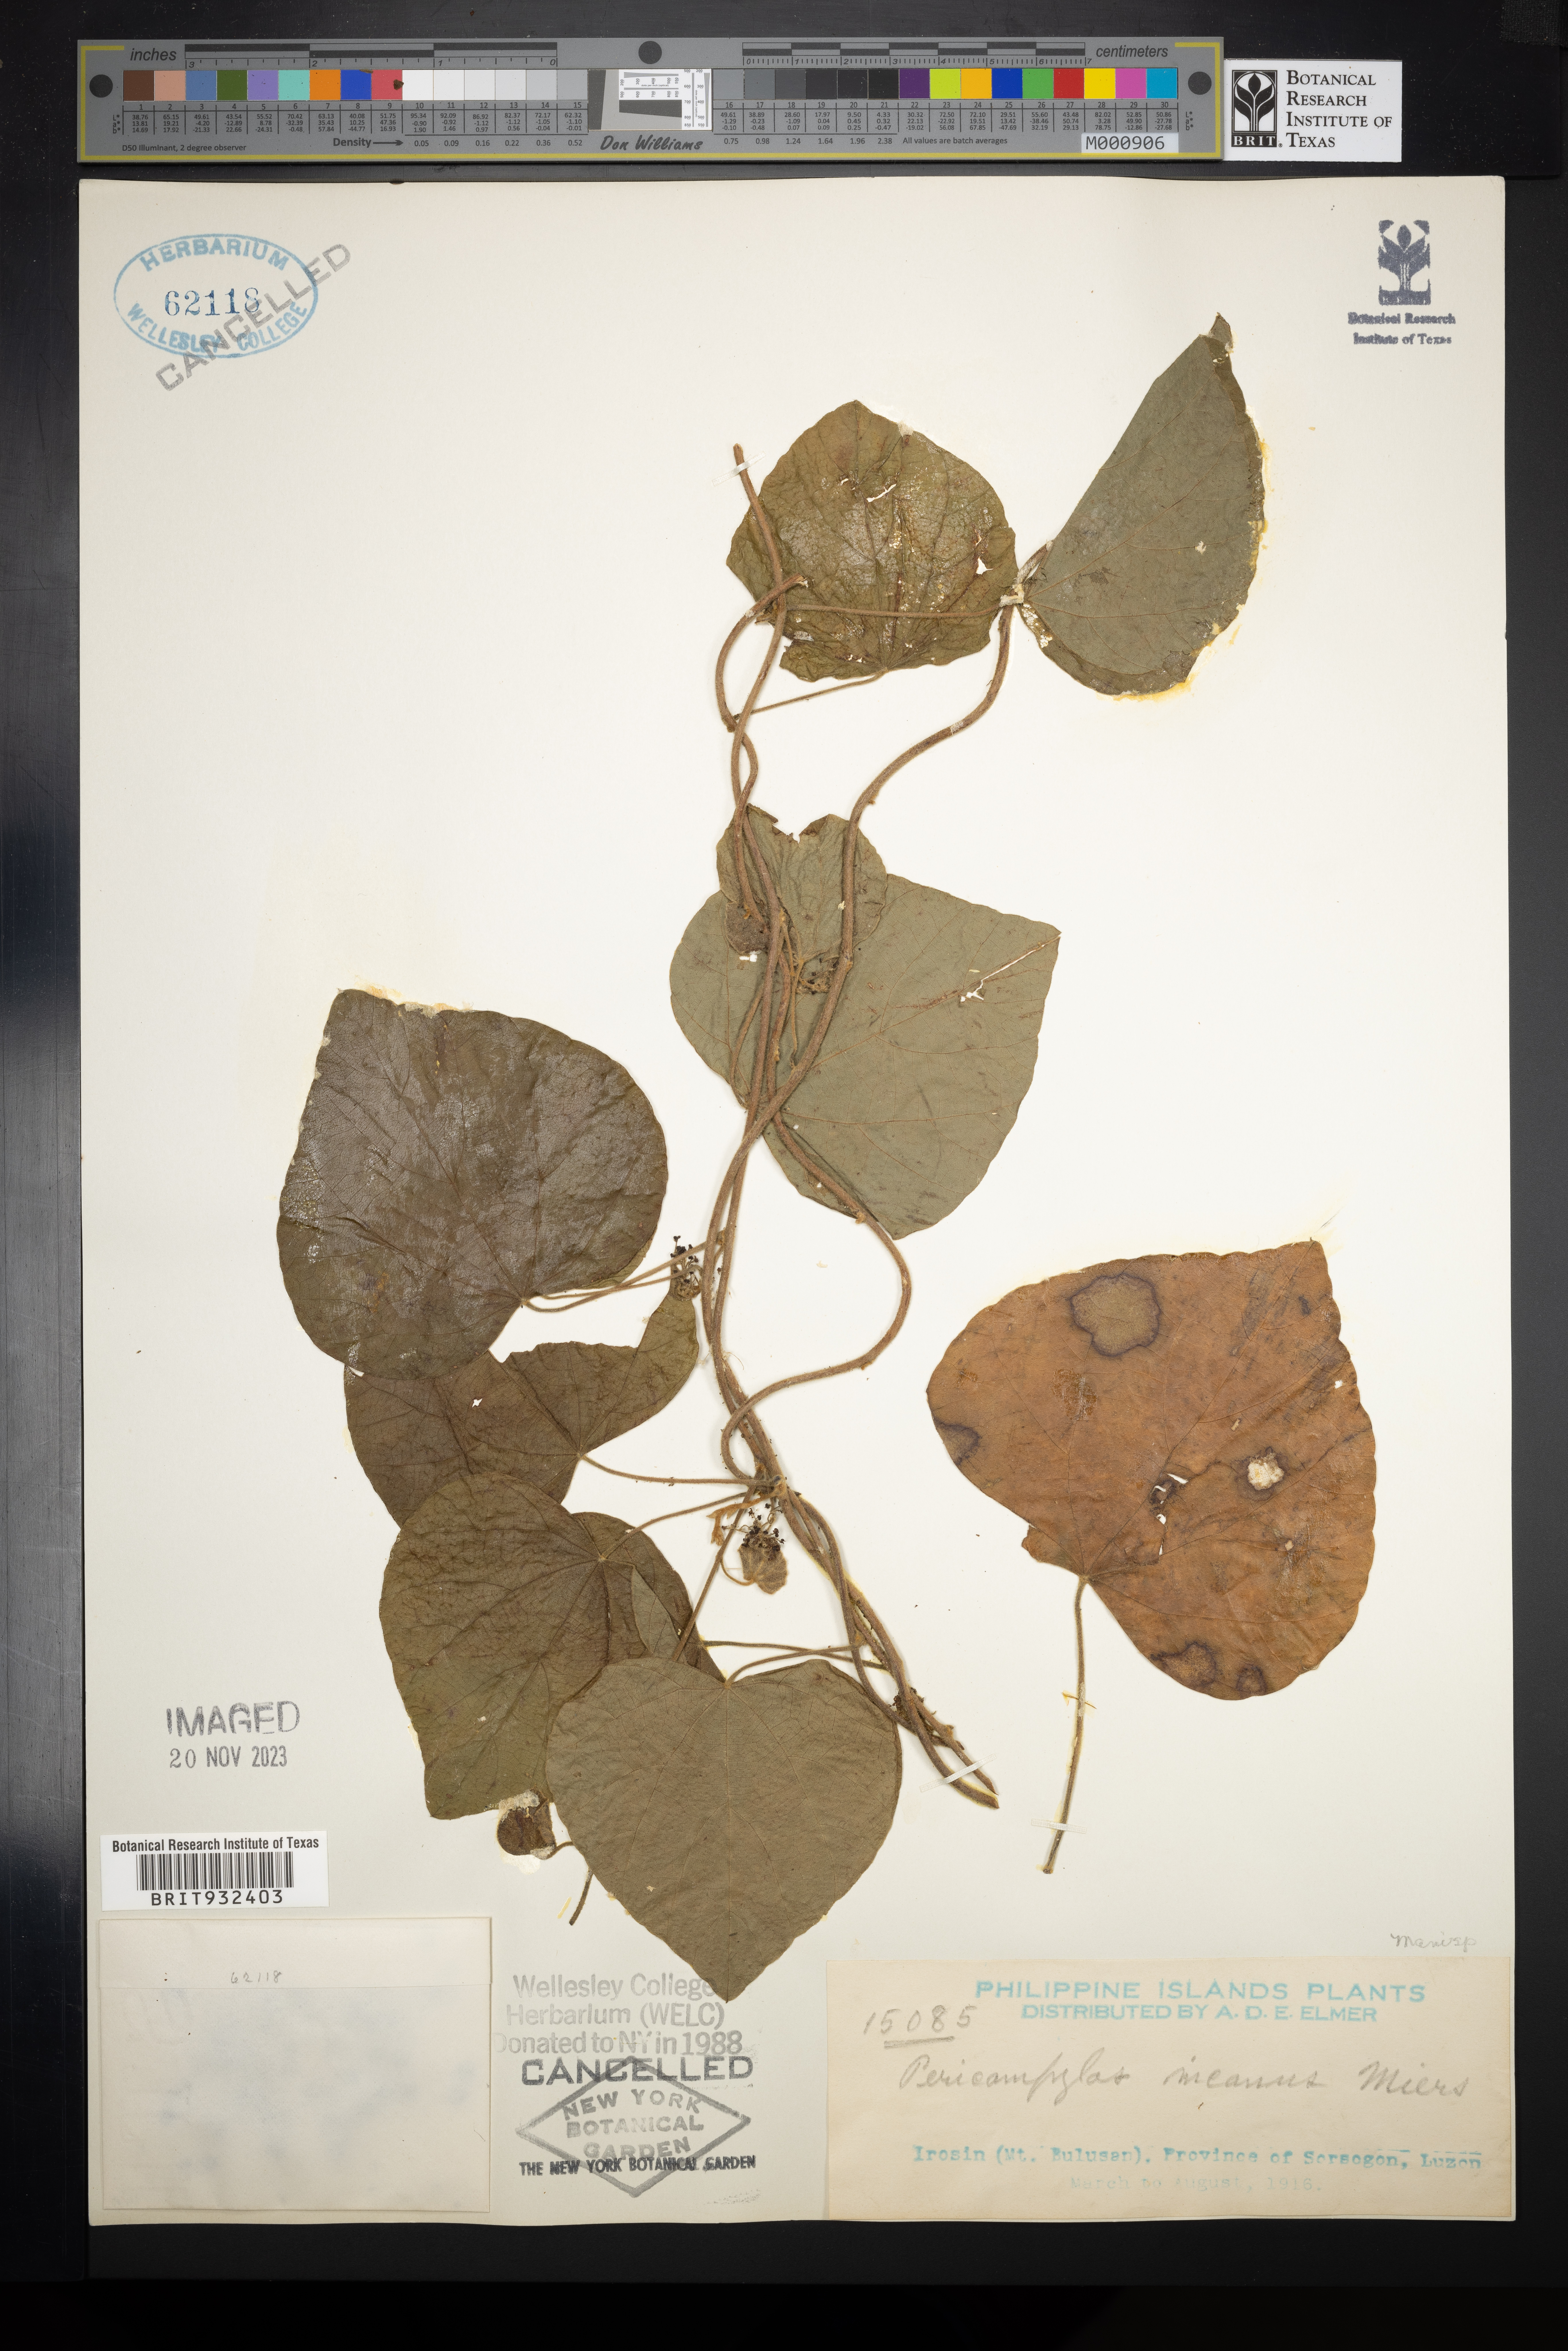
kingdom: Plantae
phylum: Tracheophyta
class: Magnoliopsida
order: Ranunculales
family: Menispermaceae
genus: Pericampylus
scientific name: Pericampylus
